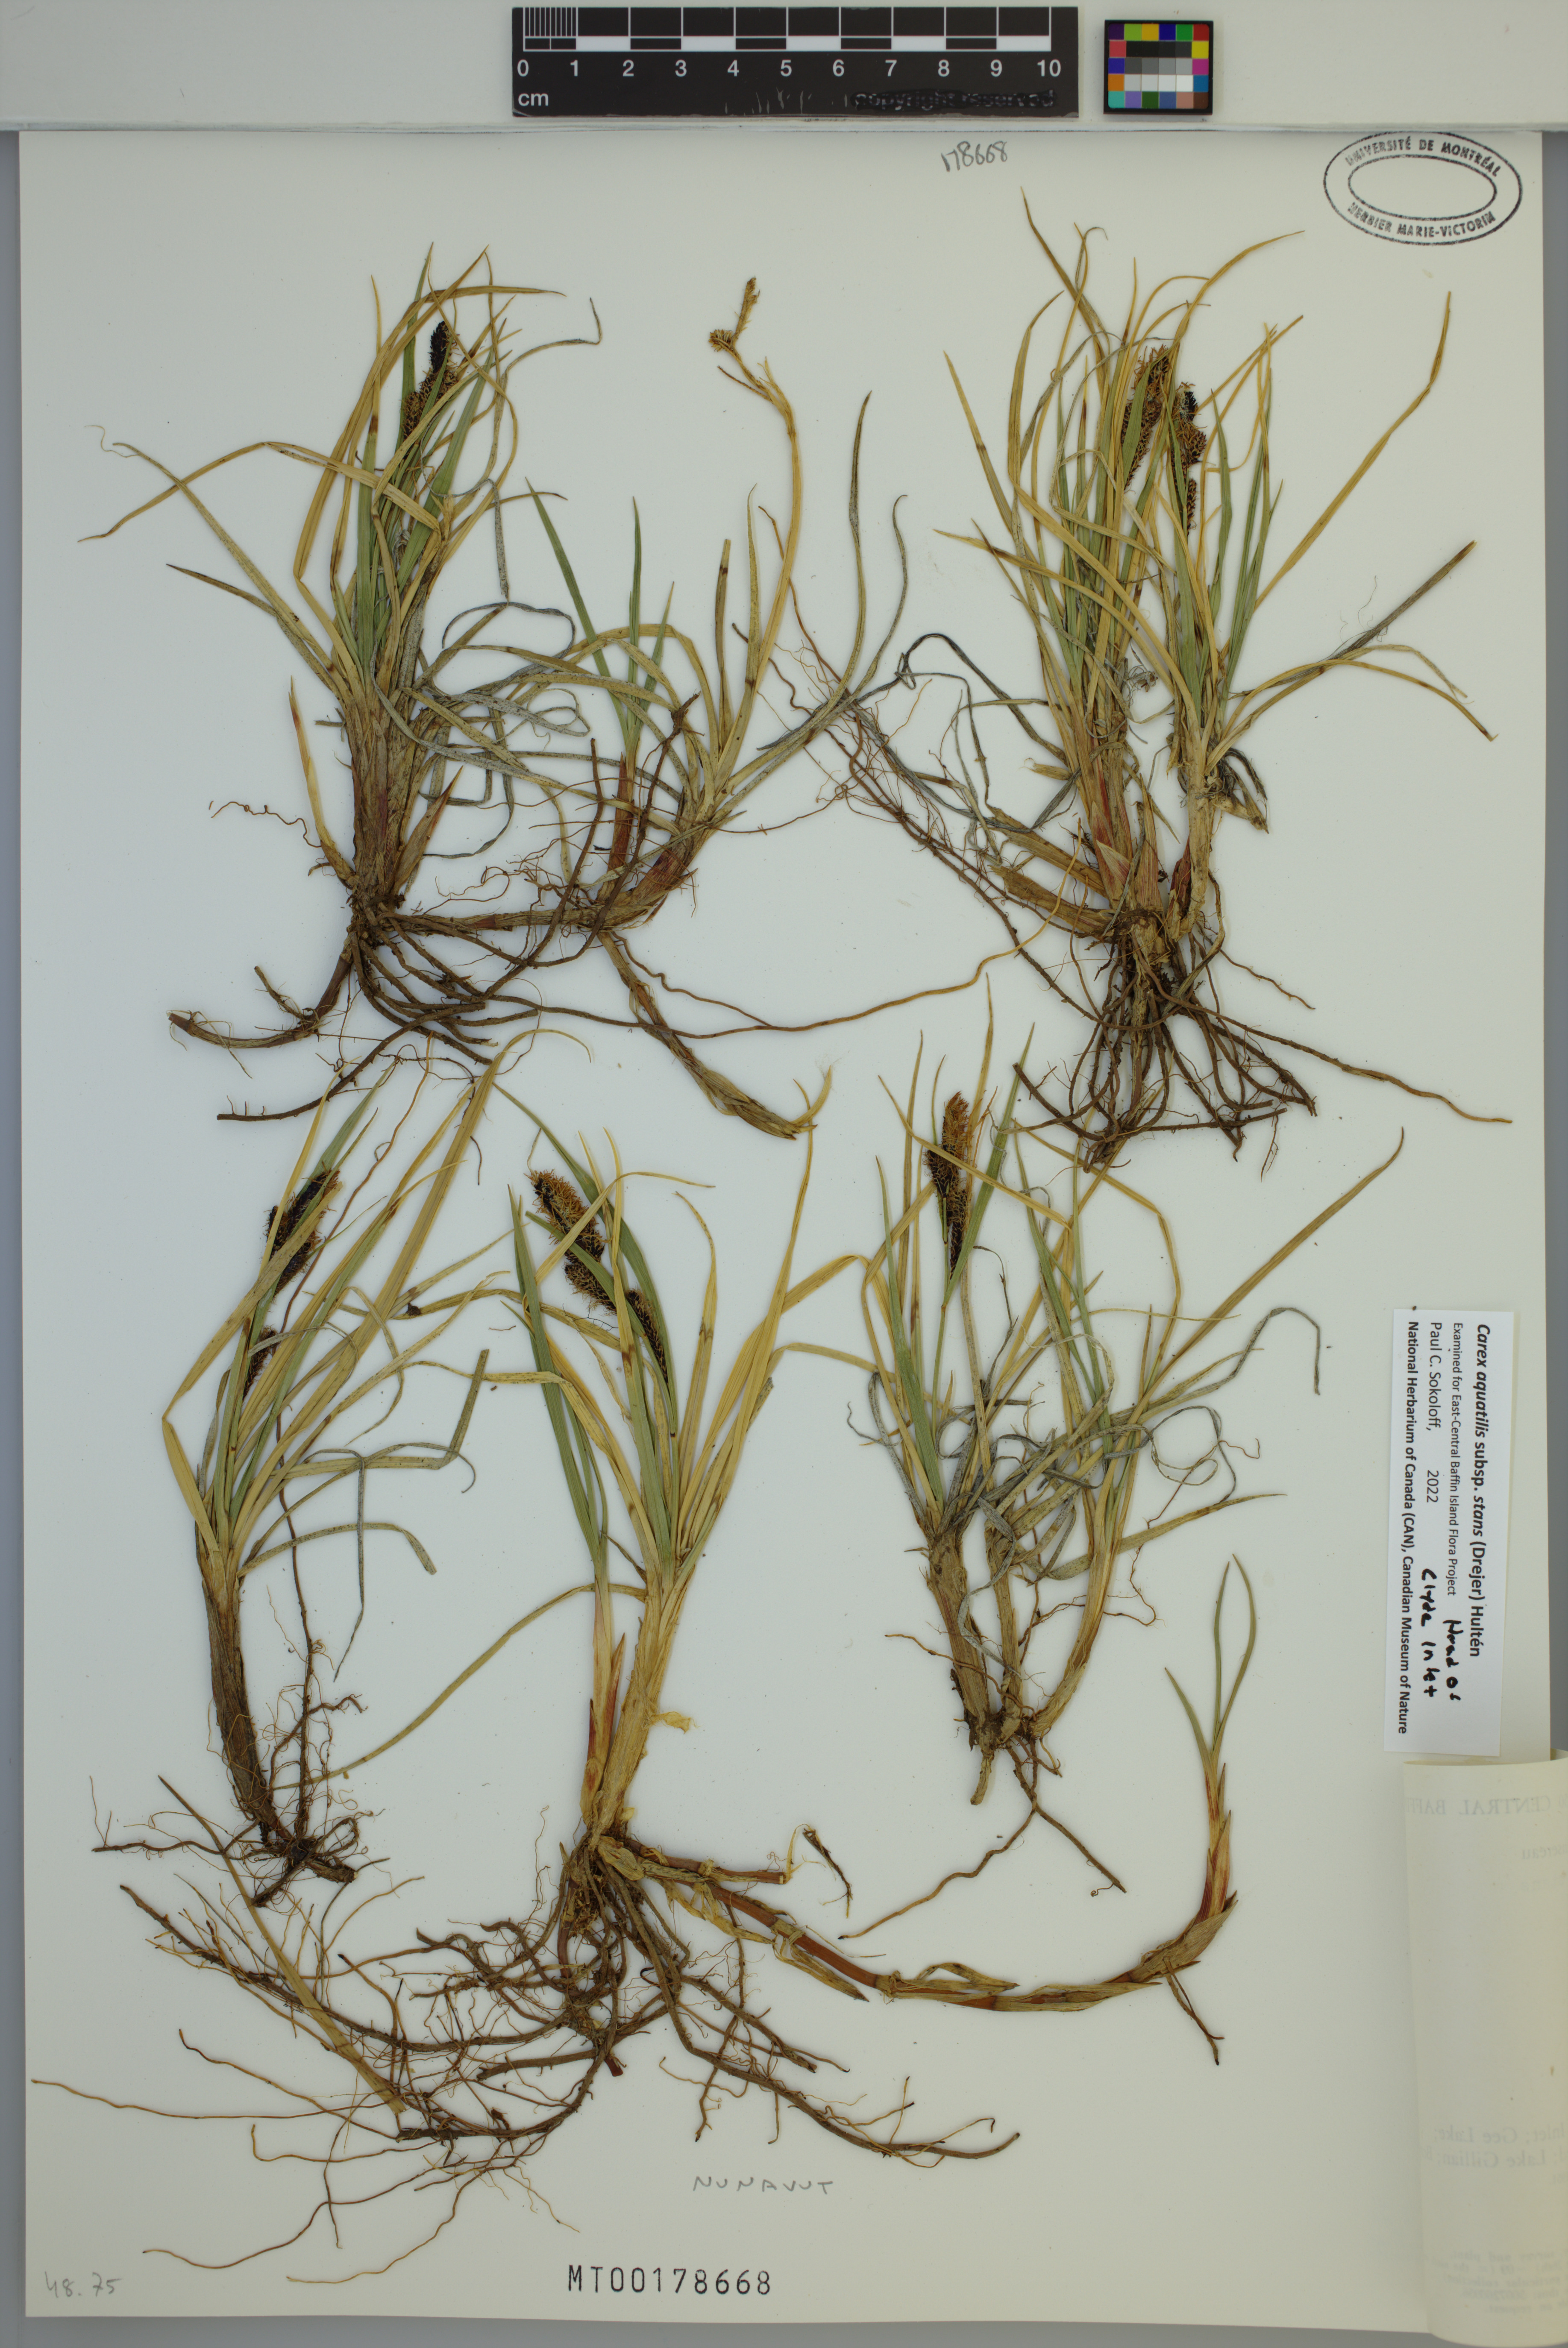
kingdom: Plantae
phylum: Tracheophyta
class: Liliopsida
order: Poales
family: Cyperaceae
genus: Carex
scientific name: Carex aquatilis
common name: Water sedge
